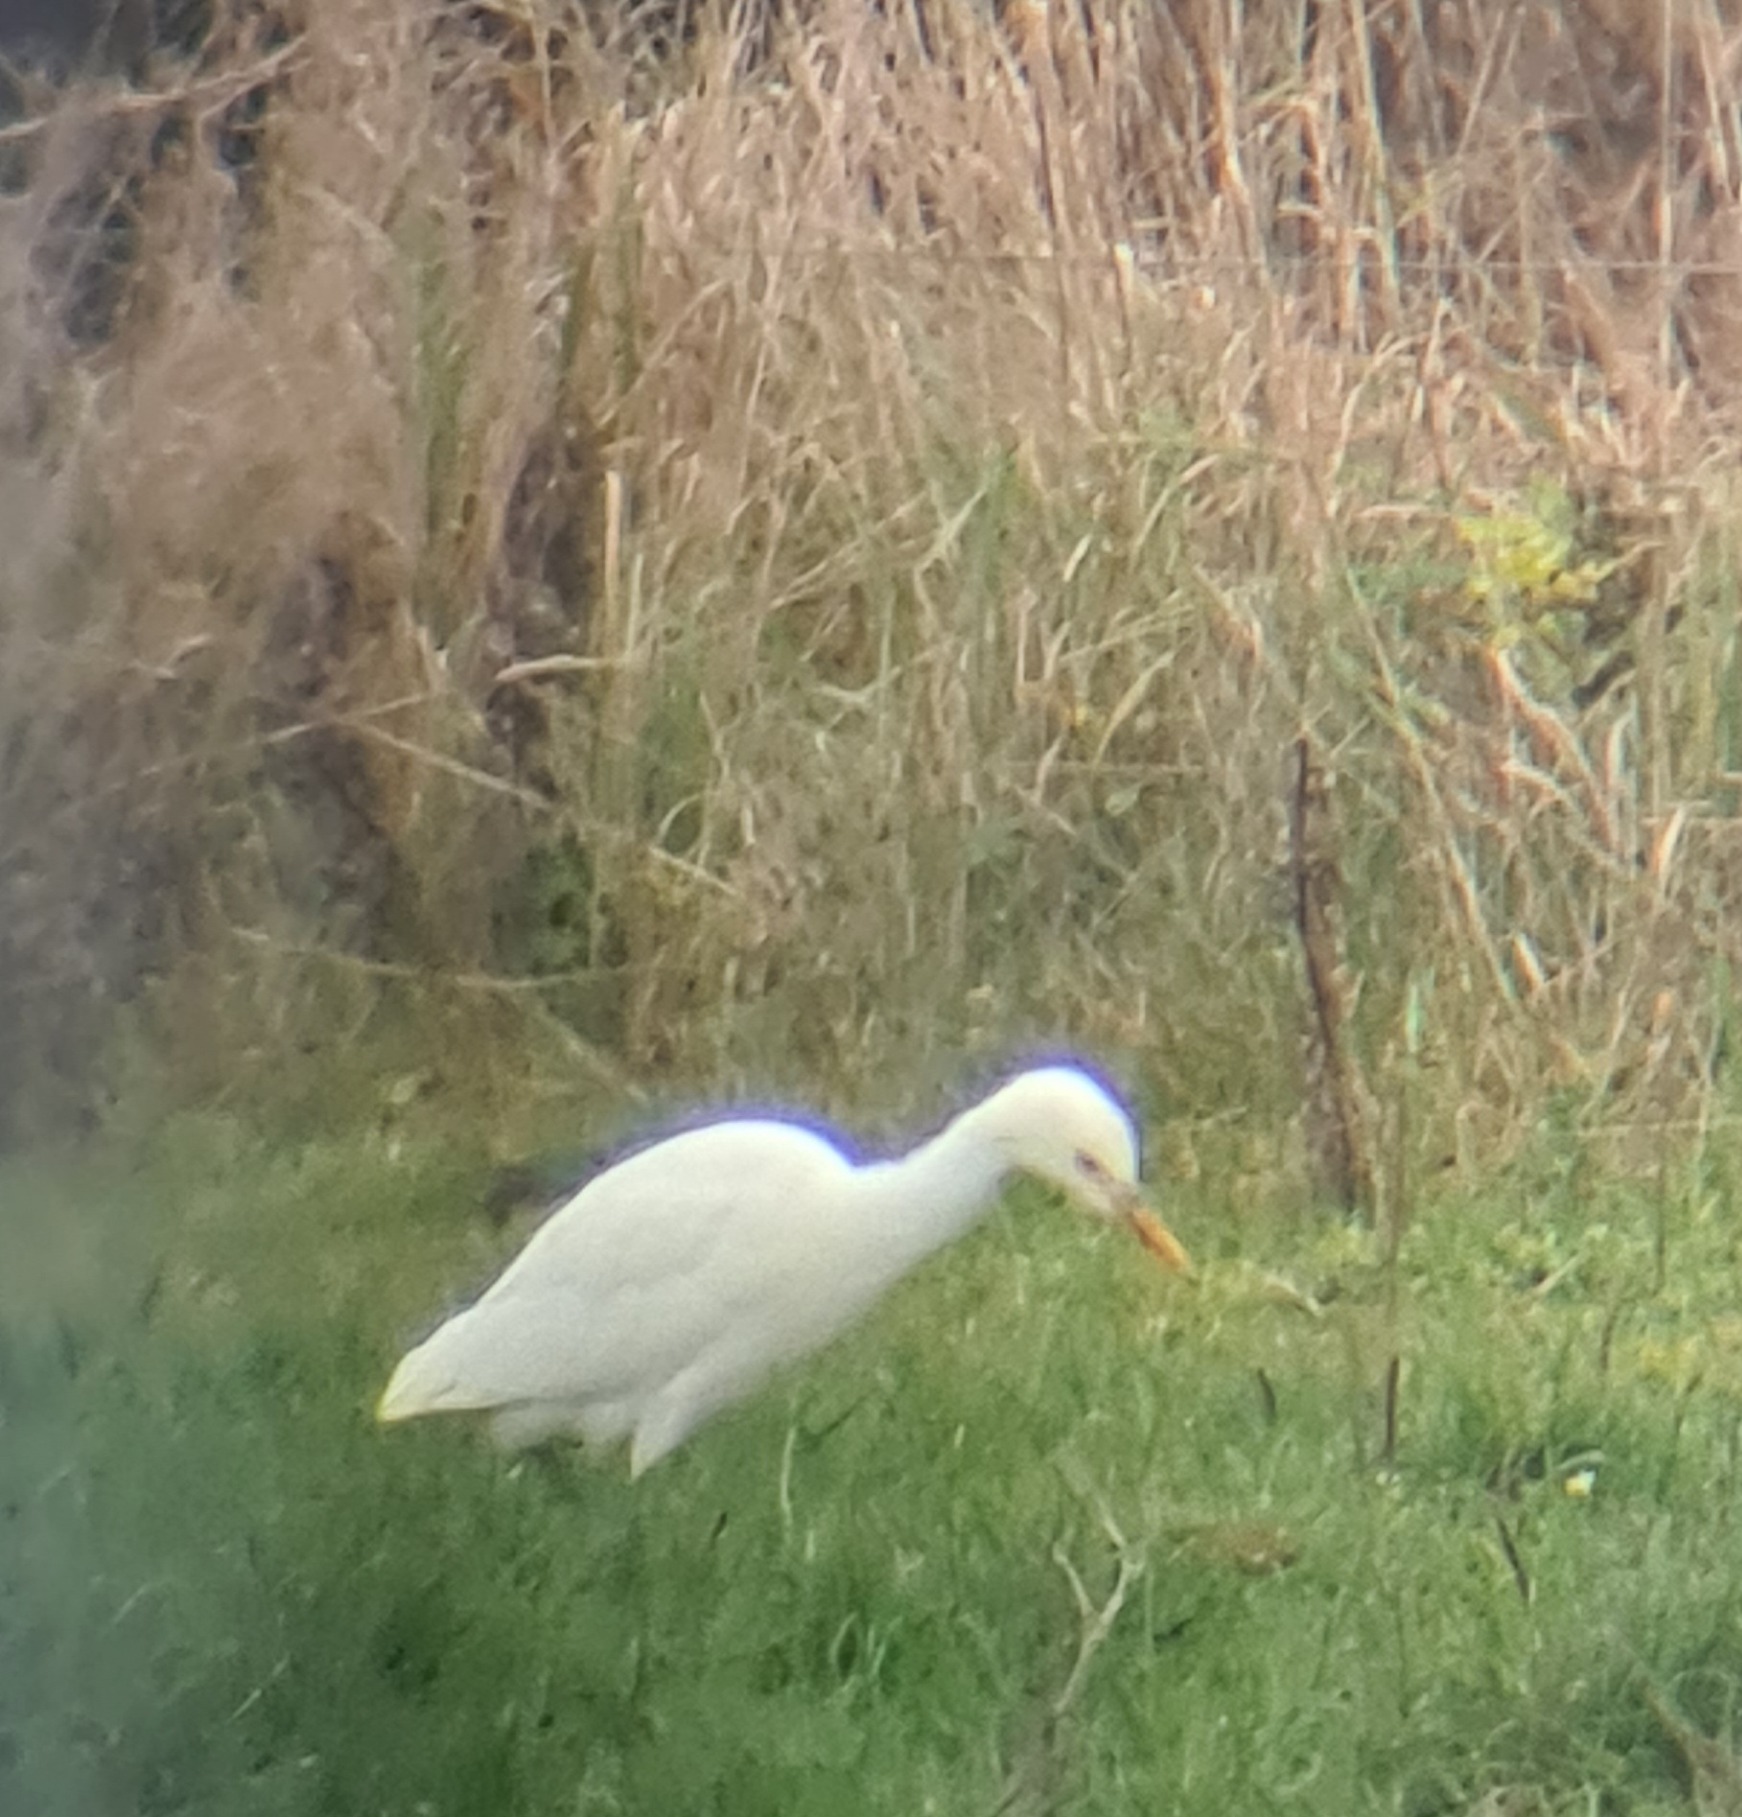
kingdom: Animalia
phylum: Chordata
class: Aves
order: Pelecaniformes
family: Ardeidae
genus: Bubulcus
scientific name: Bubulcus ibis
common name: Kohejre
